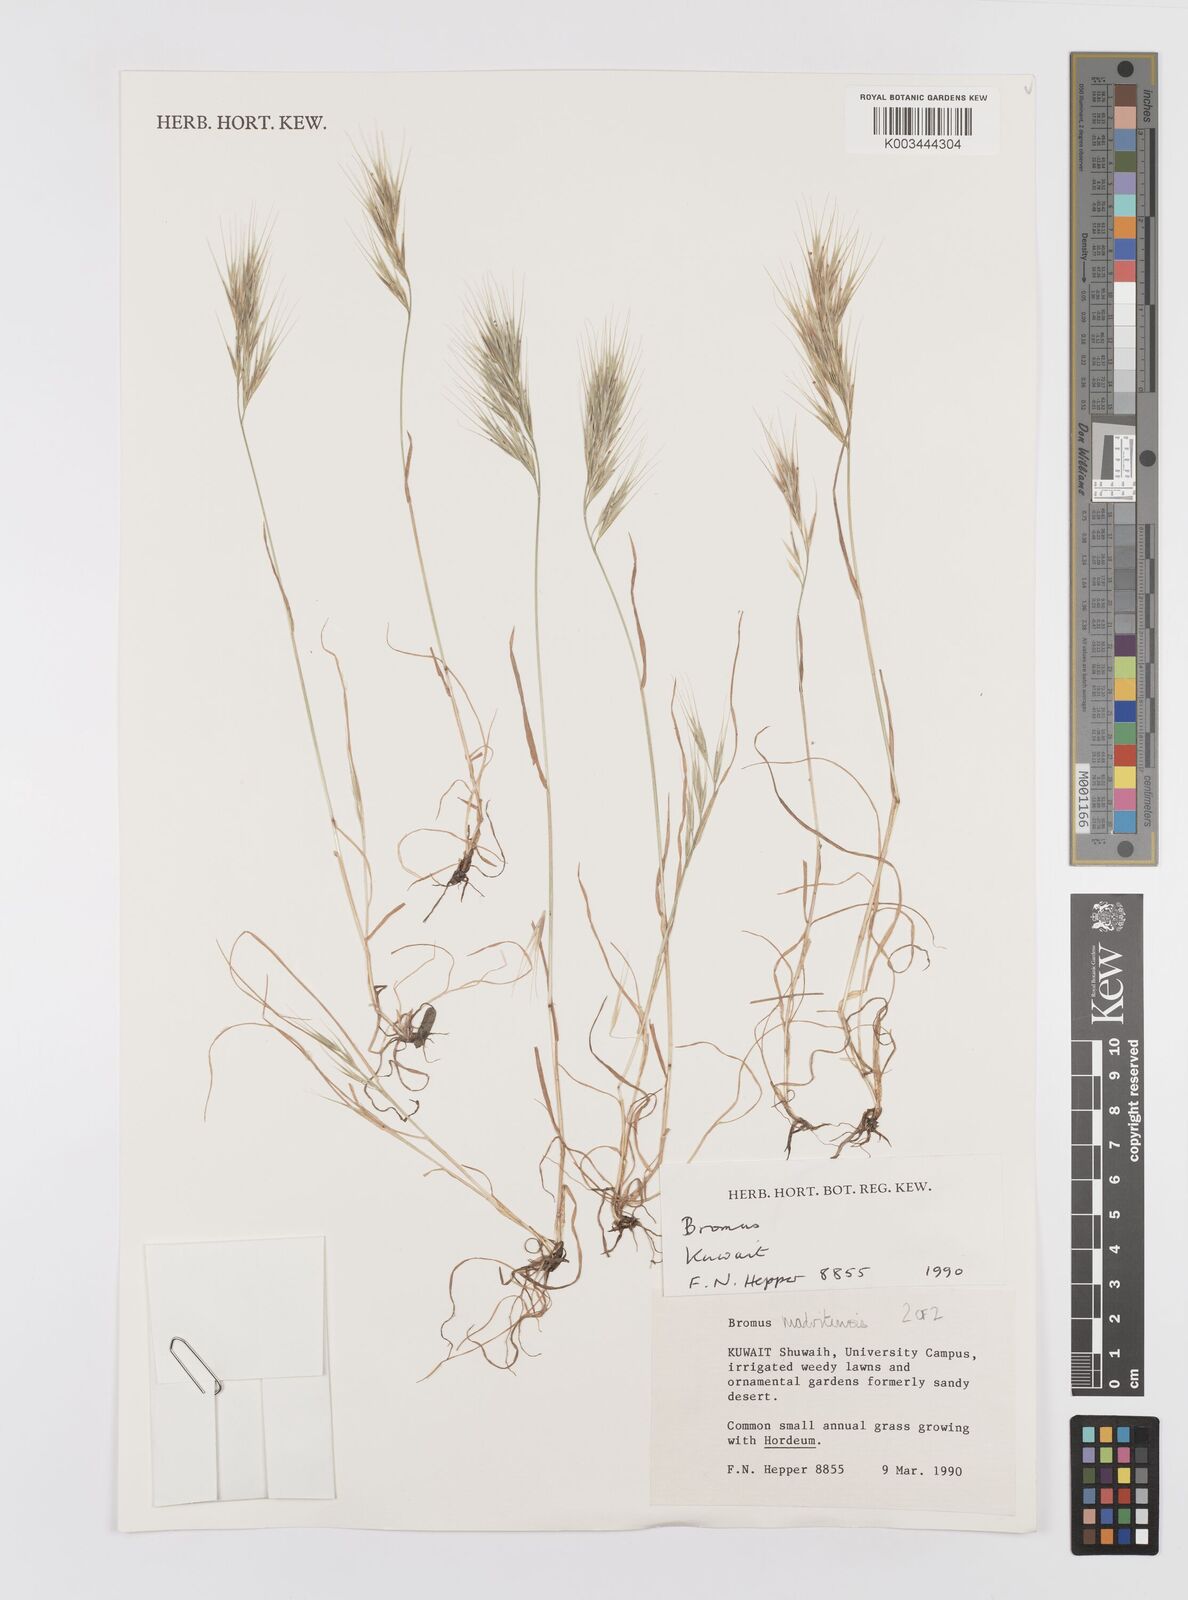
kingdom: Plantae
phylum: Tracheophyta
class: Liliopsida
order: Poales
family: Poaceae
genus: Bromus
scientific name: Bromus madritensis
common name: Compact brome
